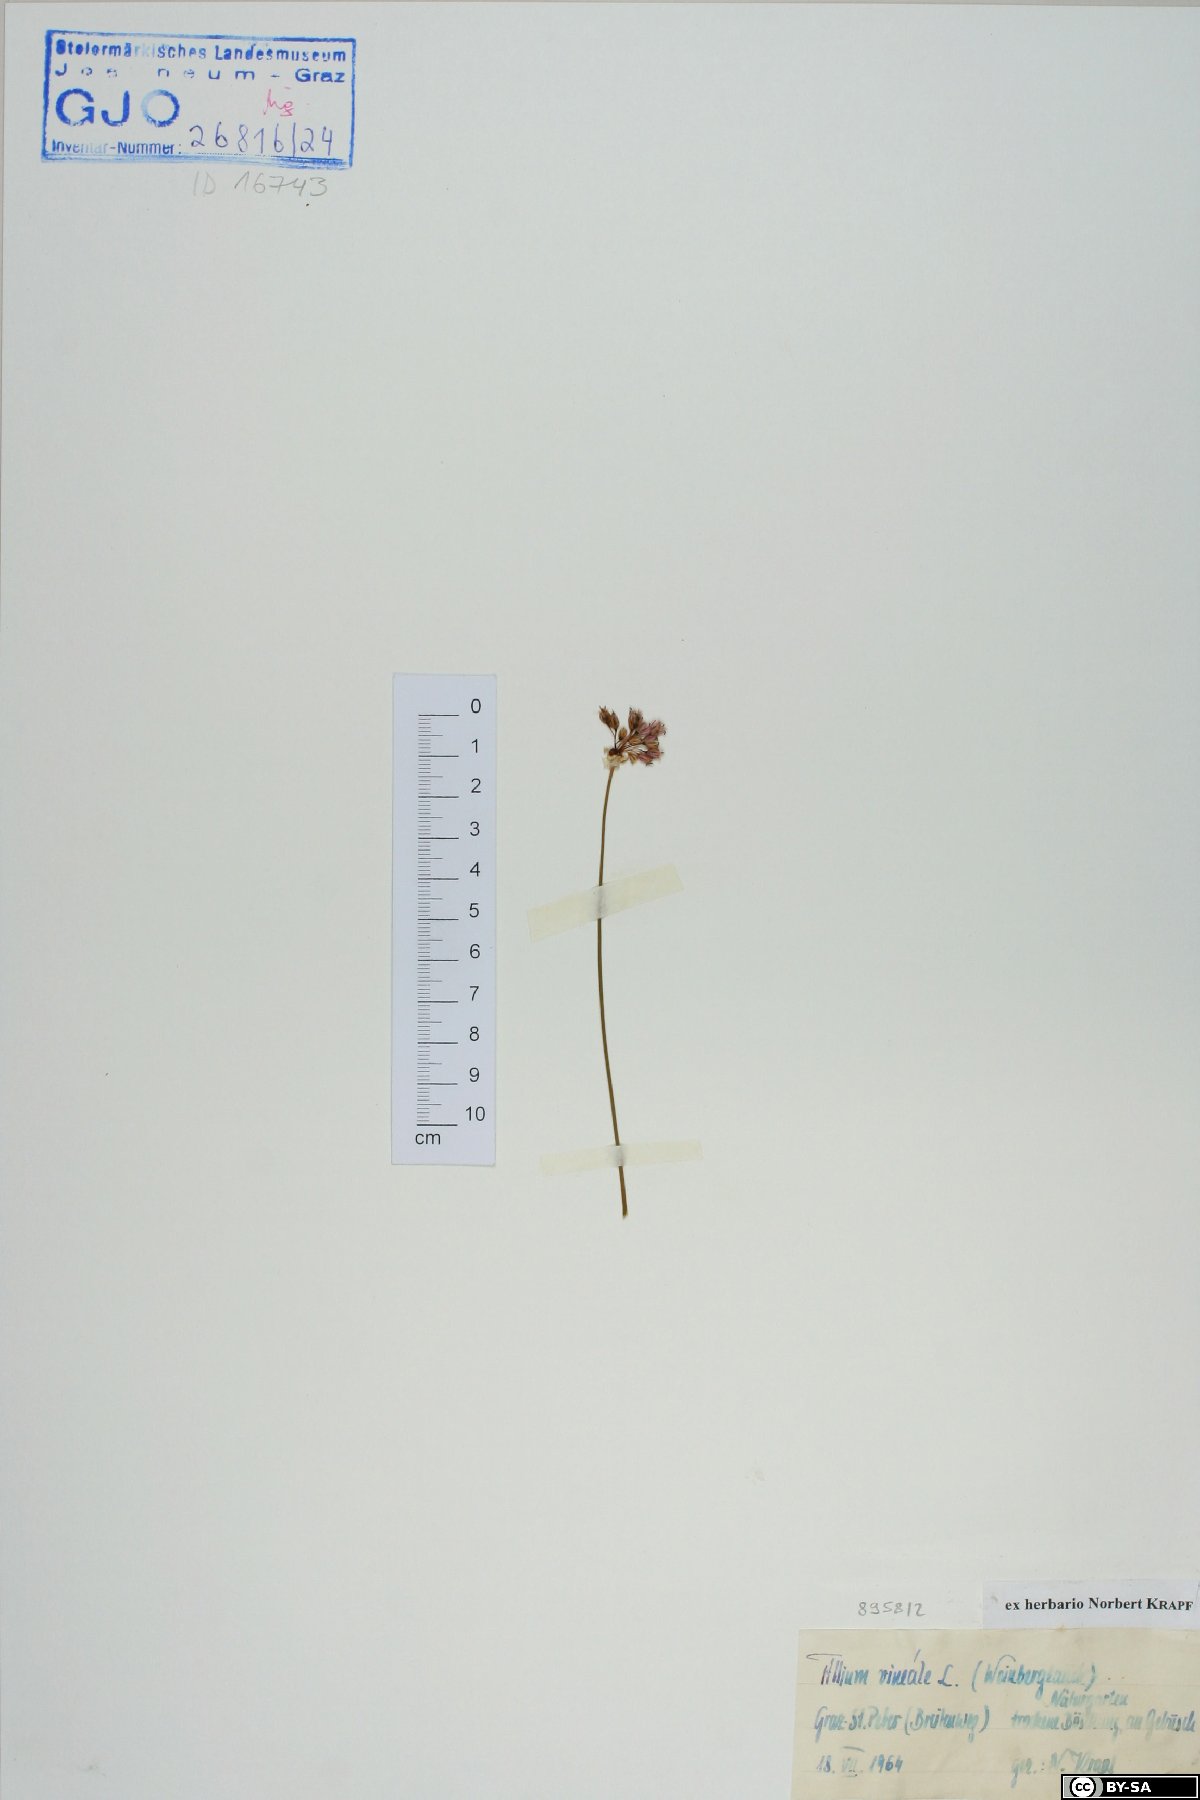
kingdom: Plantae
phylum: Tracheophyta
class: Liliopsida
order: Asparagales
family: Amaryllidaceae
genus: Allium
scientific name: Allium vineale
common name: Crow garlic
